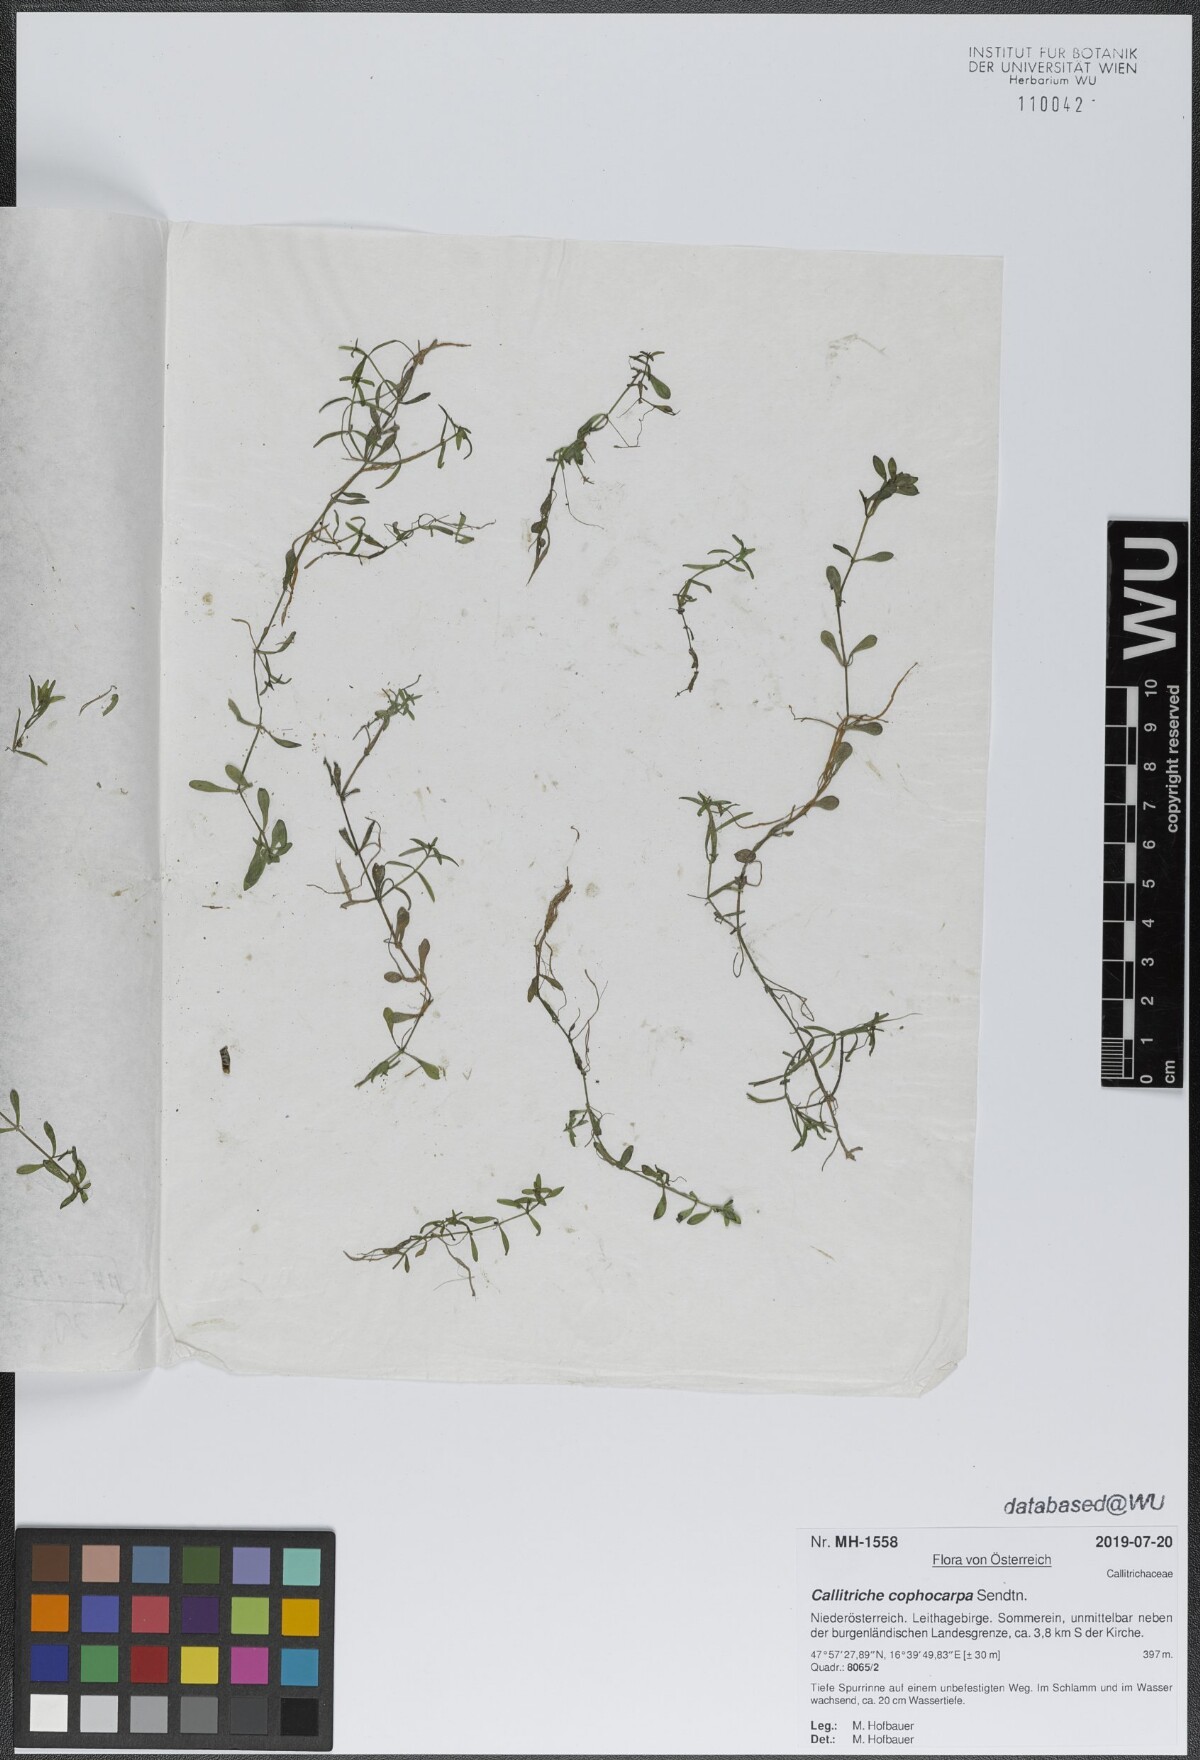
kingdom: Plantae
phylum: Tracheophyta
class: Magnoliopsida
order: Lamiales
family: Plantaginaceae
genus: Callitriche
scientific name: Callitriche cophocarpa
